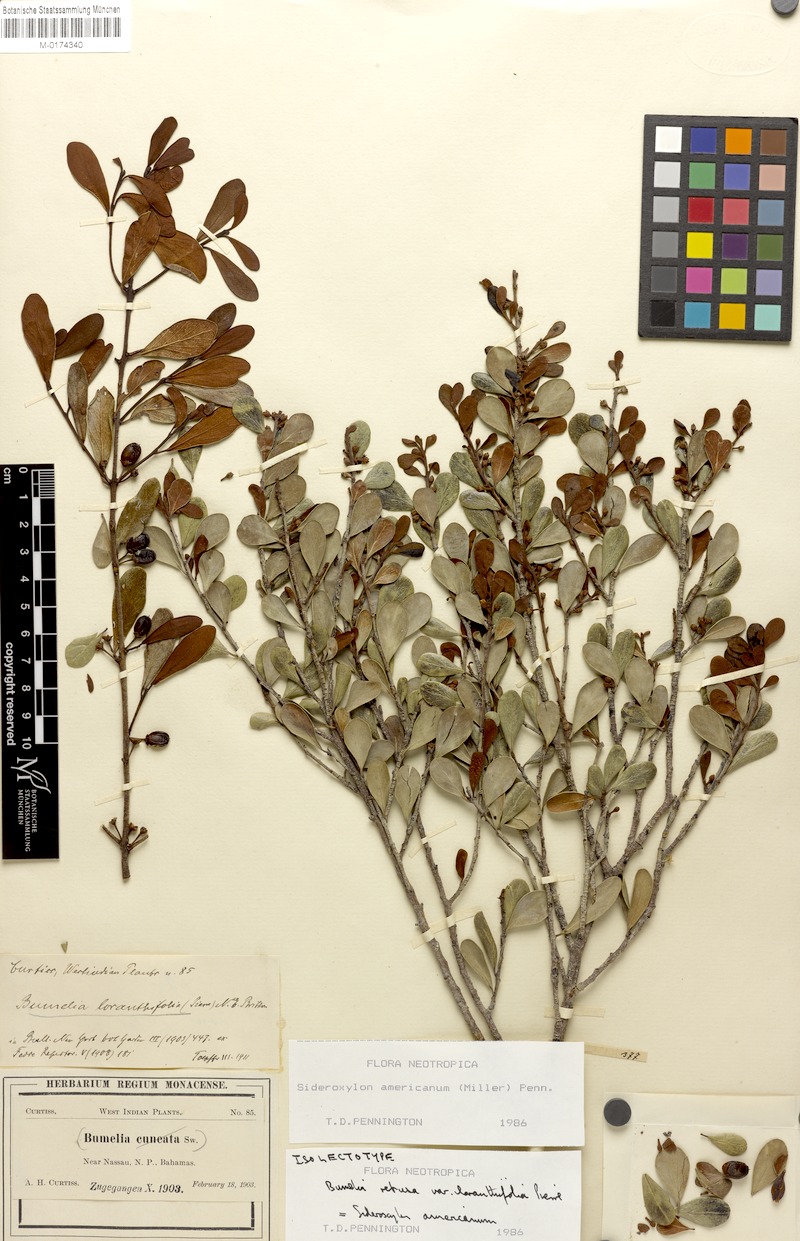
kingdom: Plantae
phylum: Tracheophyta
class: Magnoliopsida
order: Ericales
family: Sapotaceae
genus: Sideroxylon
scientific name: Sideroxylon americanum
